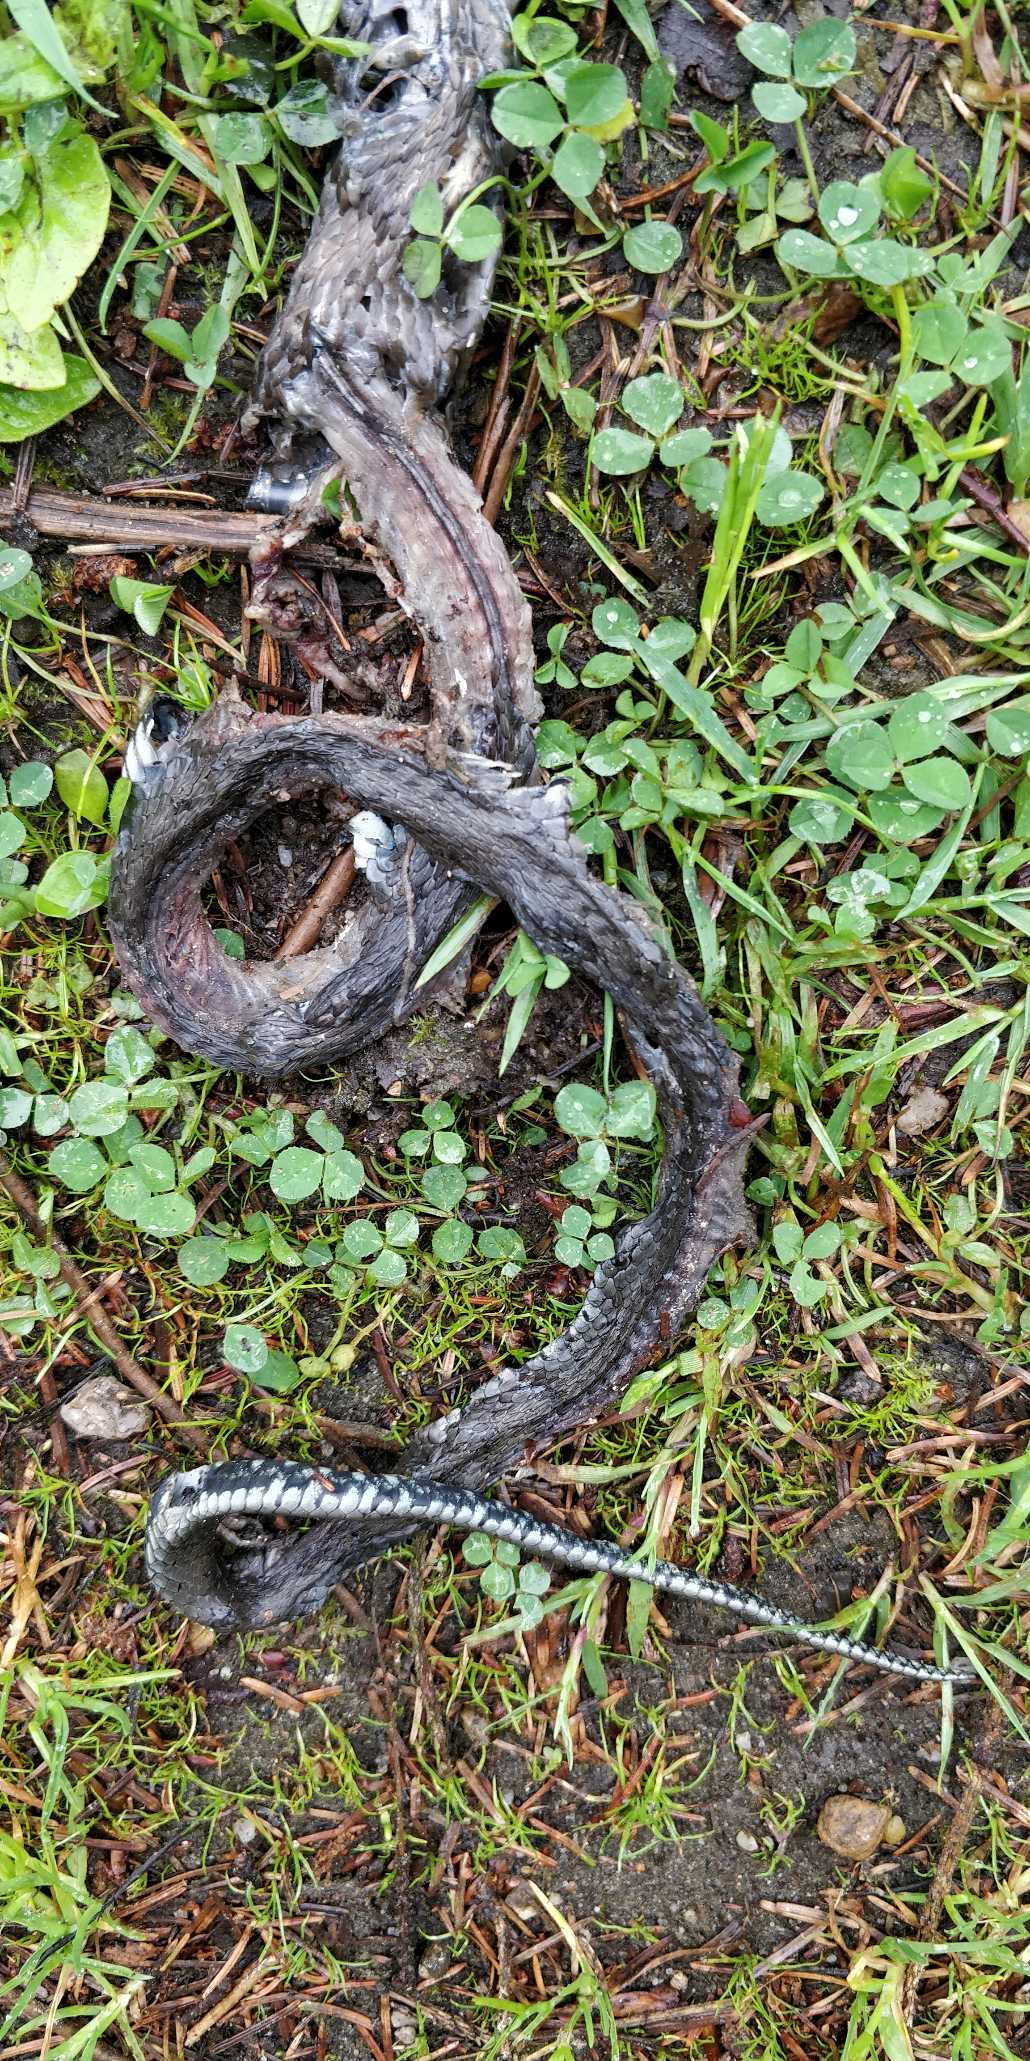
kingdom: Animalia
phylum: Chordata
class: Squamata
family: Colubridae
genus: Natrix
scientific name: Natrix natrix
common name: Snog
